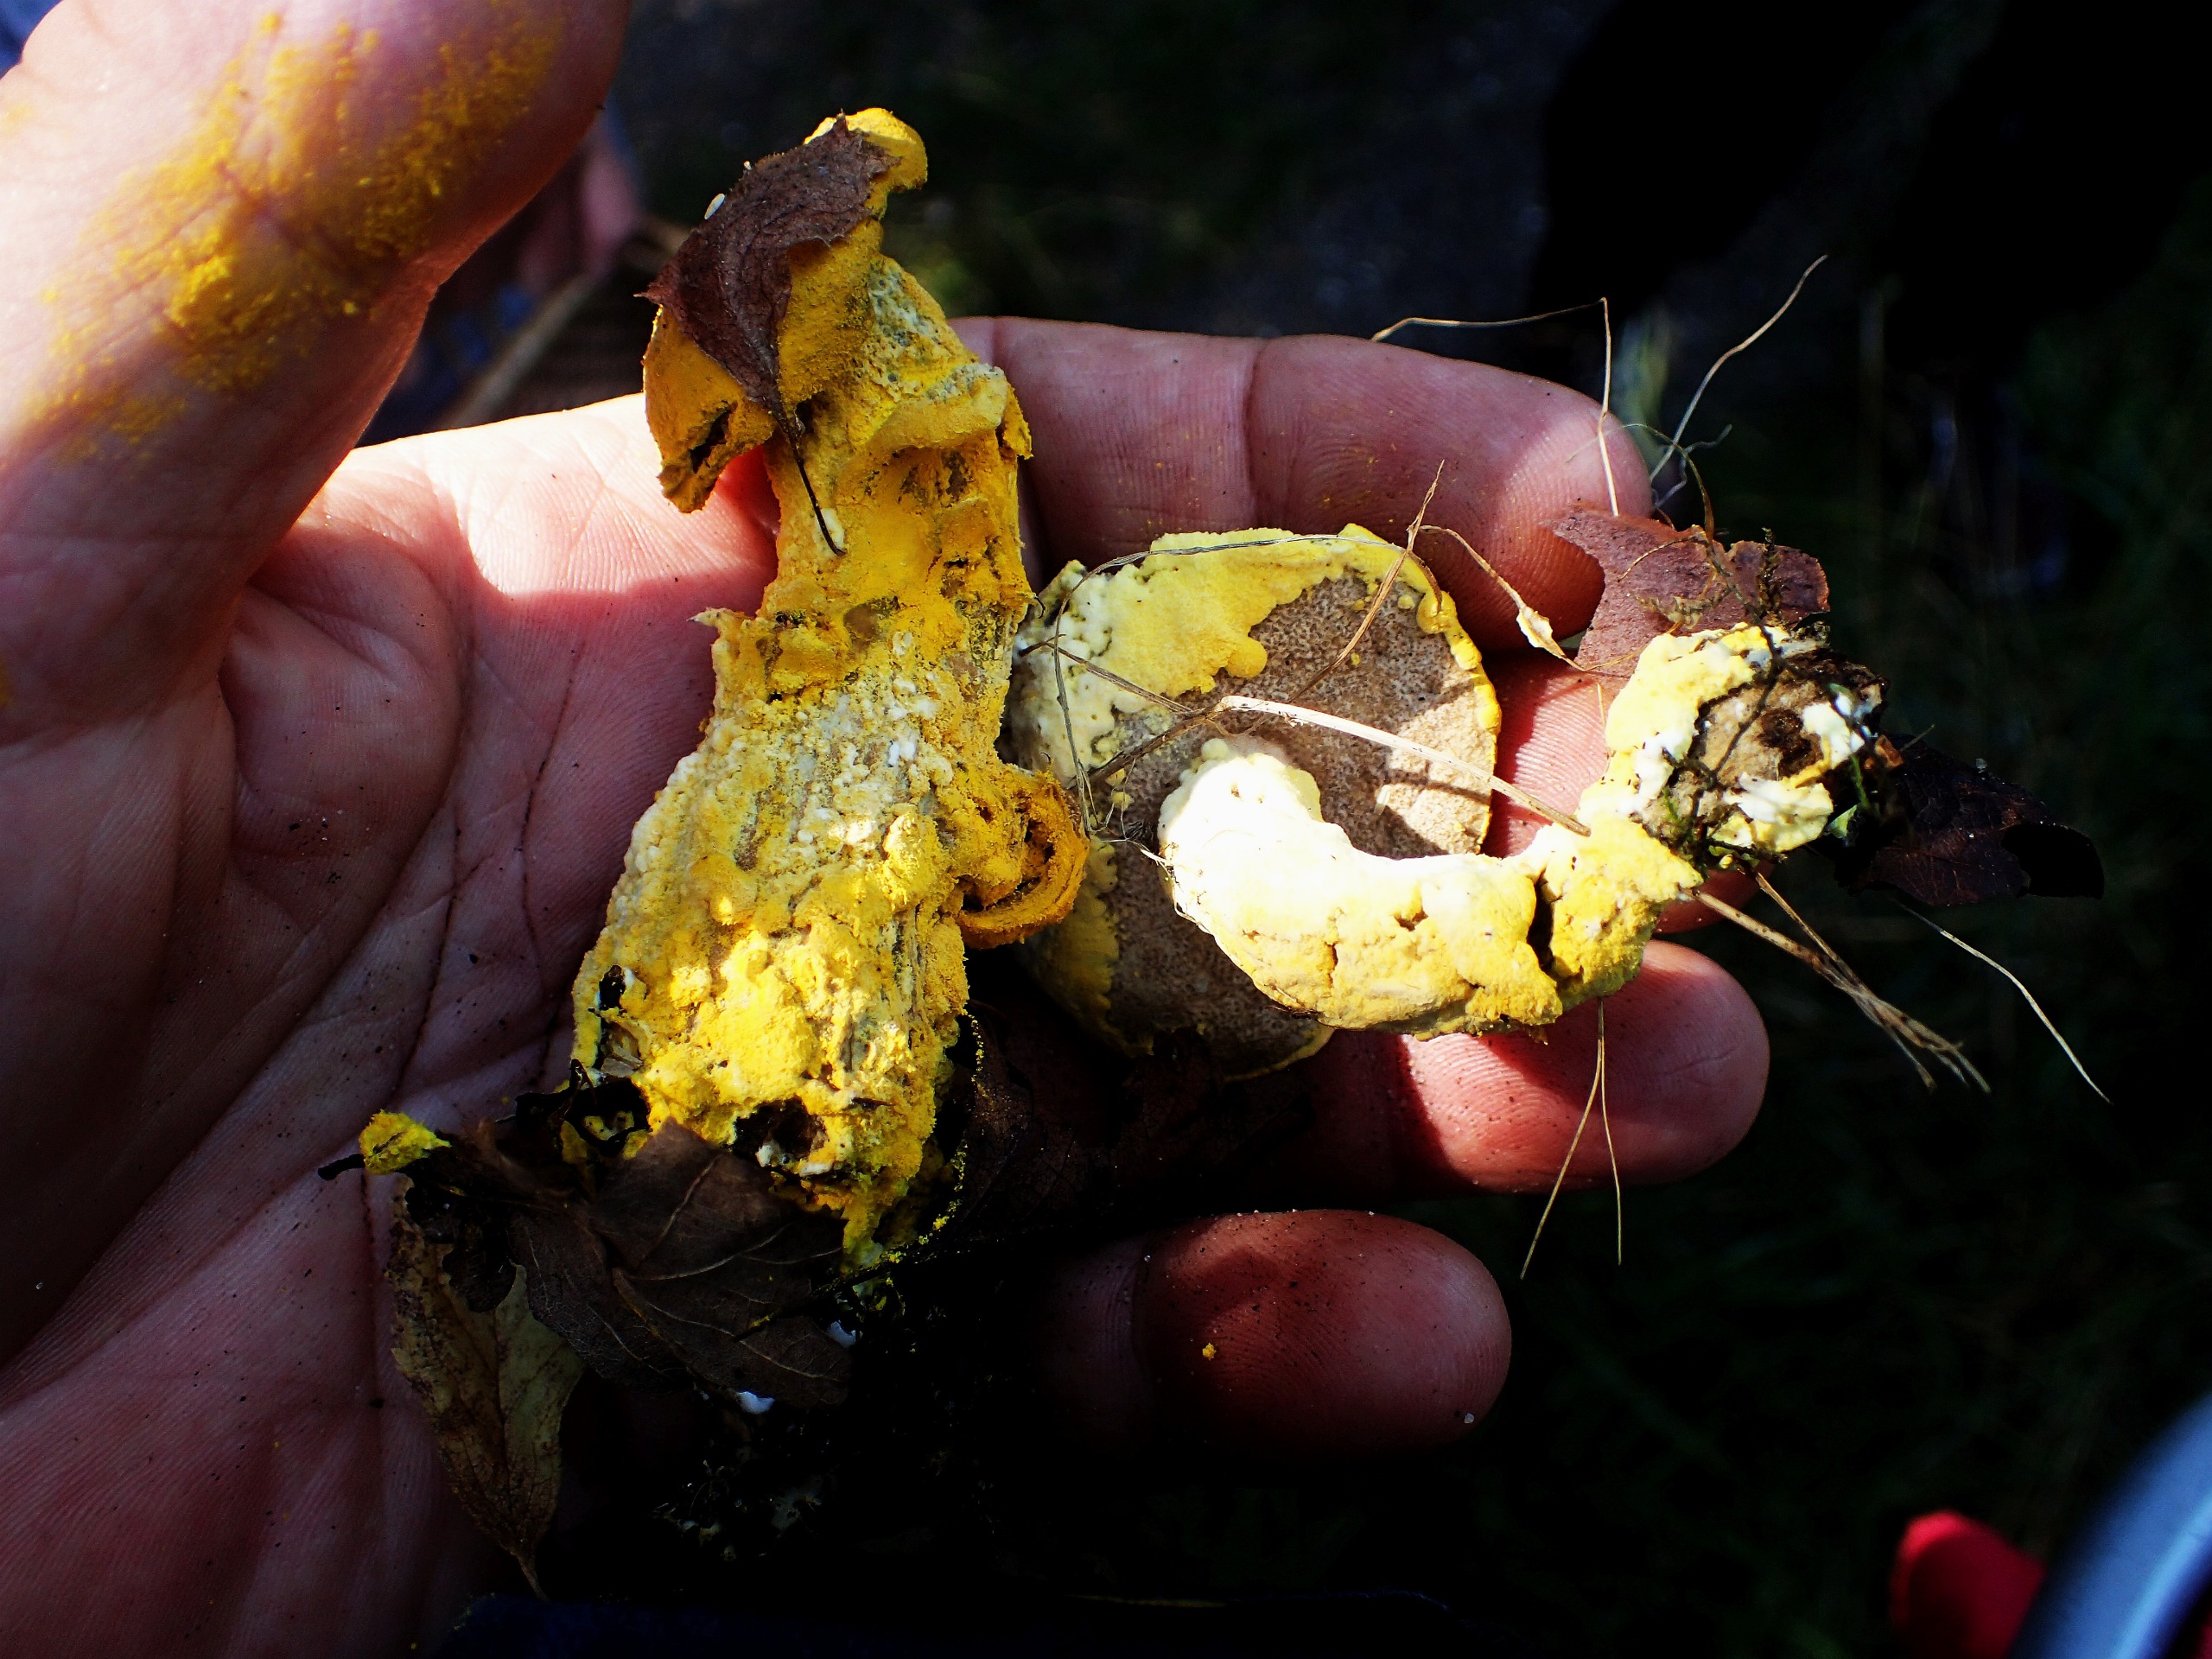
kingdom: Fungi
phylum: Ascomycota
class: Sordariomycetes
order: Hypocreales
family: Hypocreaceae
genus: Hypomyces
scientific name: Hypomyces microspermus
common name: Dværgrørhat-snylteskorpe
